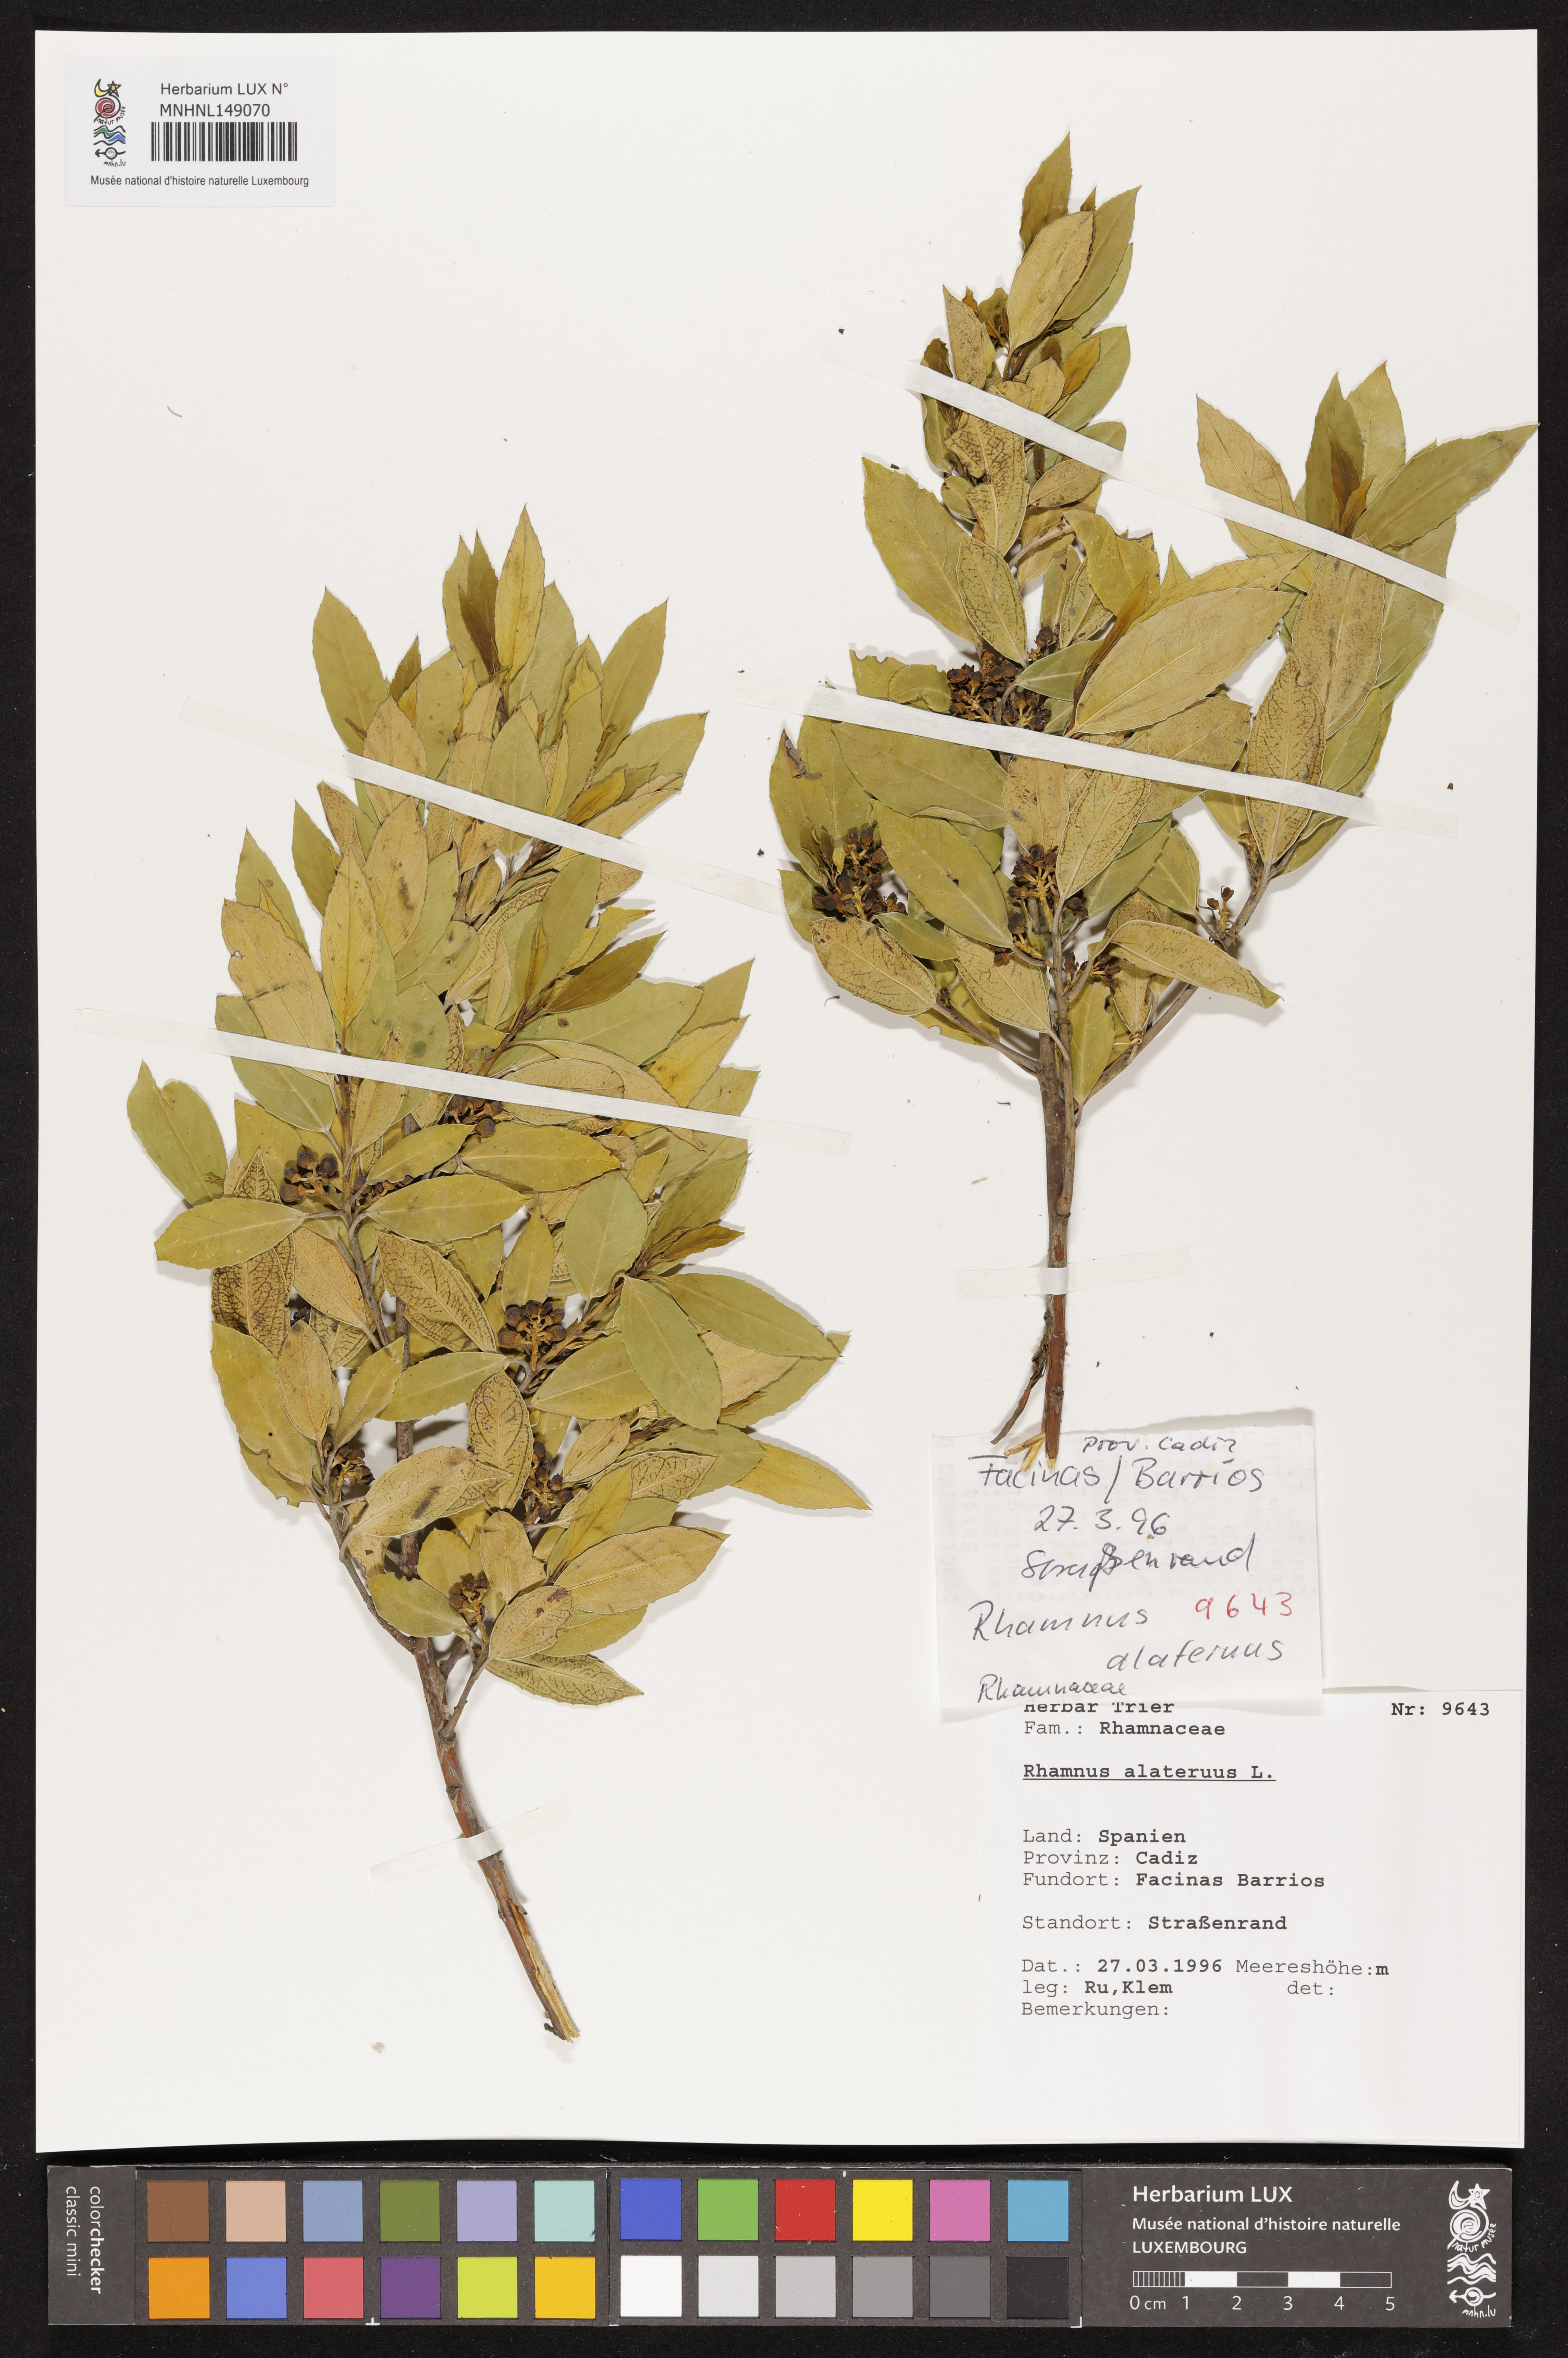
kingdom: Plantae
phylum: Tracheophyta
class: Magnoliopsida
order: Rosales
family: Rhamnaceae
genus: Rhamnus
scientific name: Rhamnus alaternus
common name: Mediterranean buckthorn
